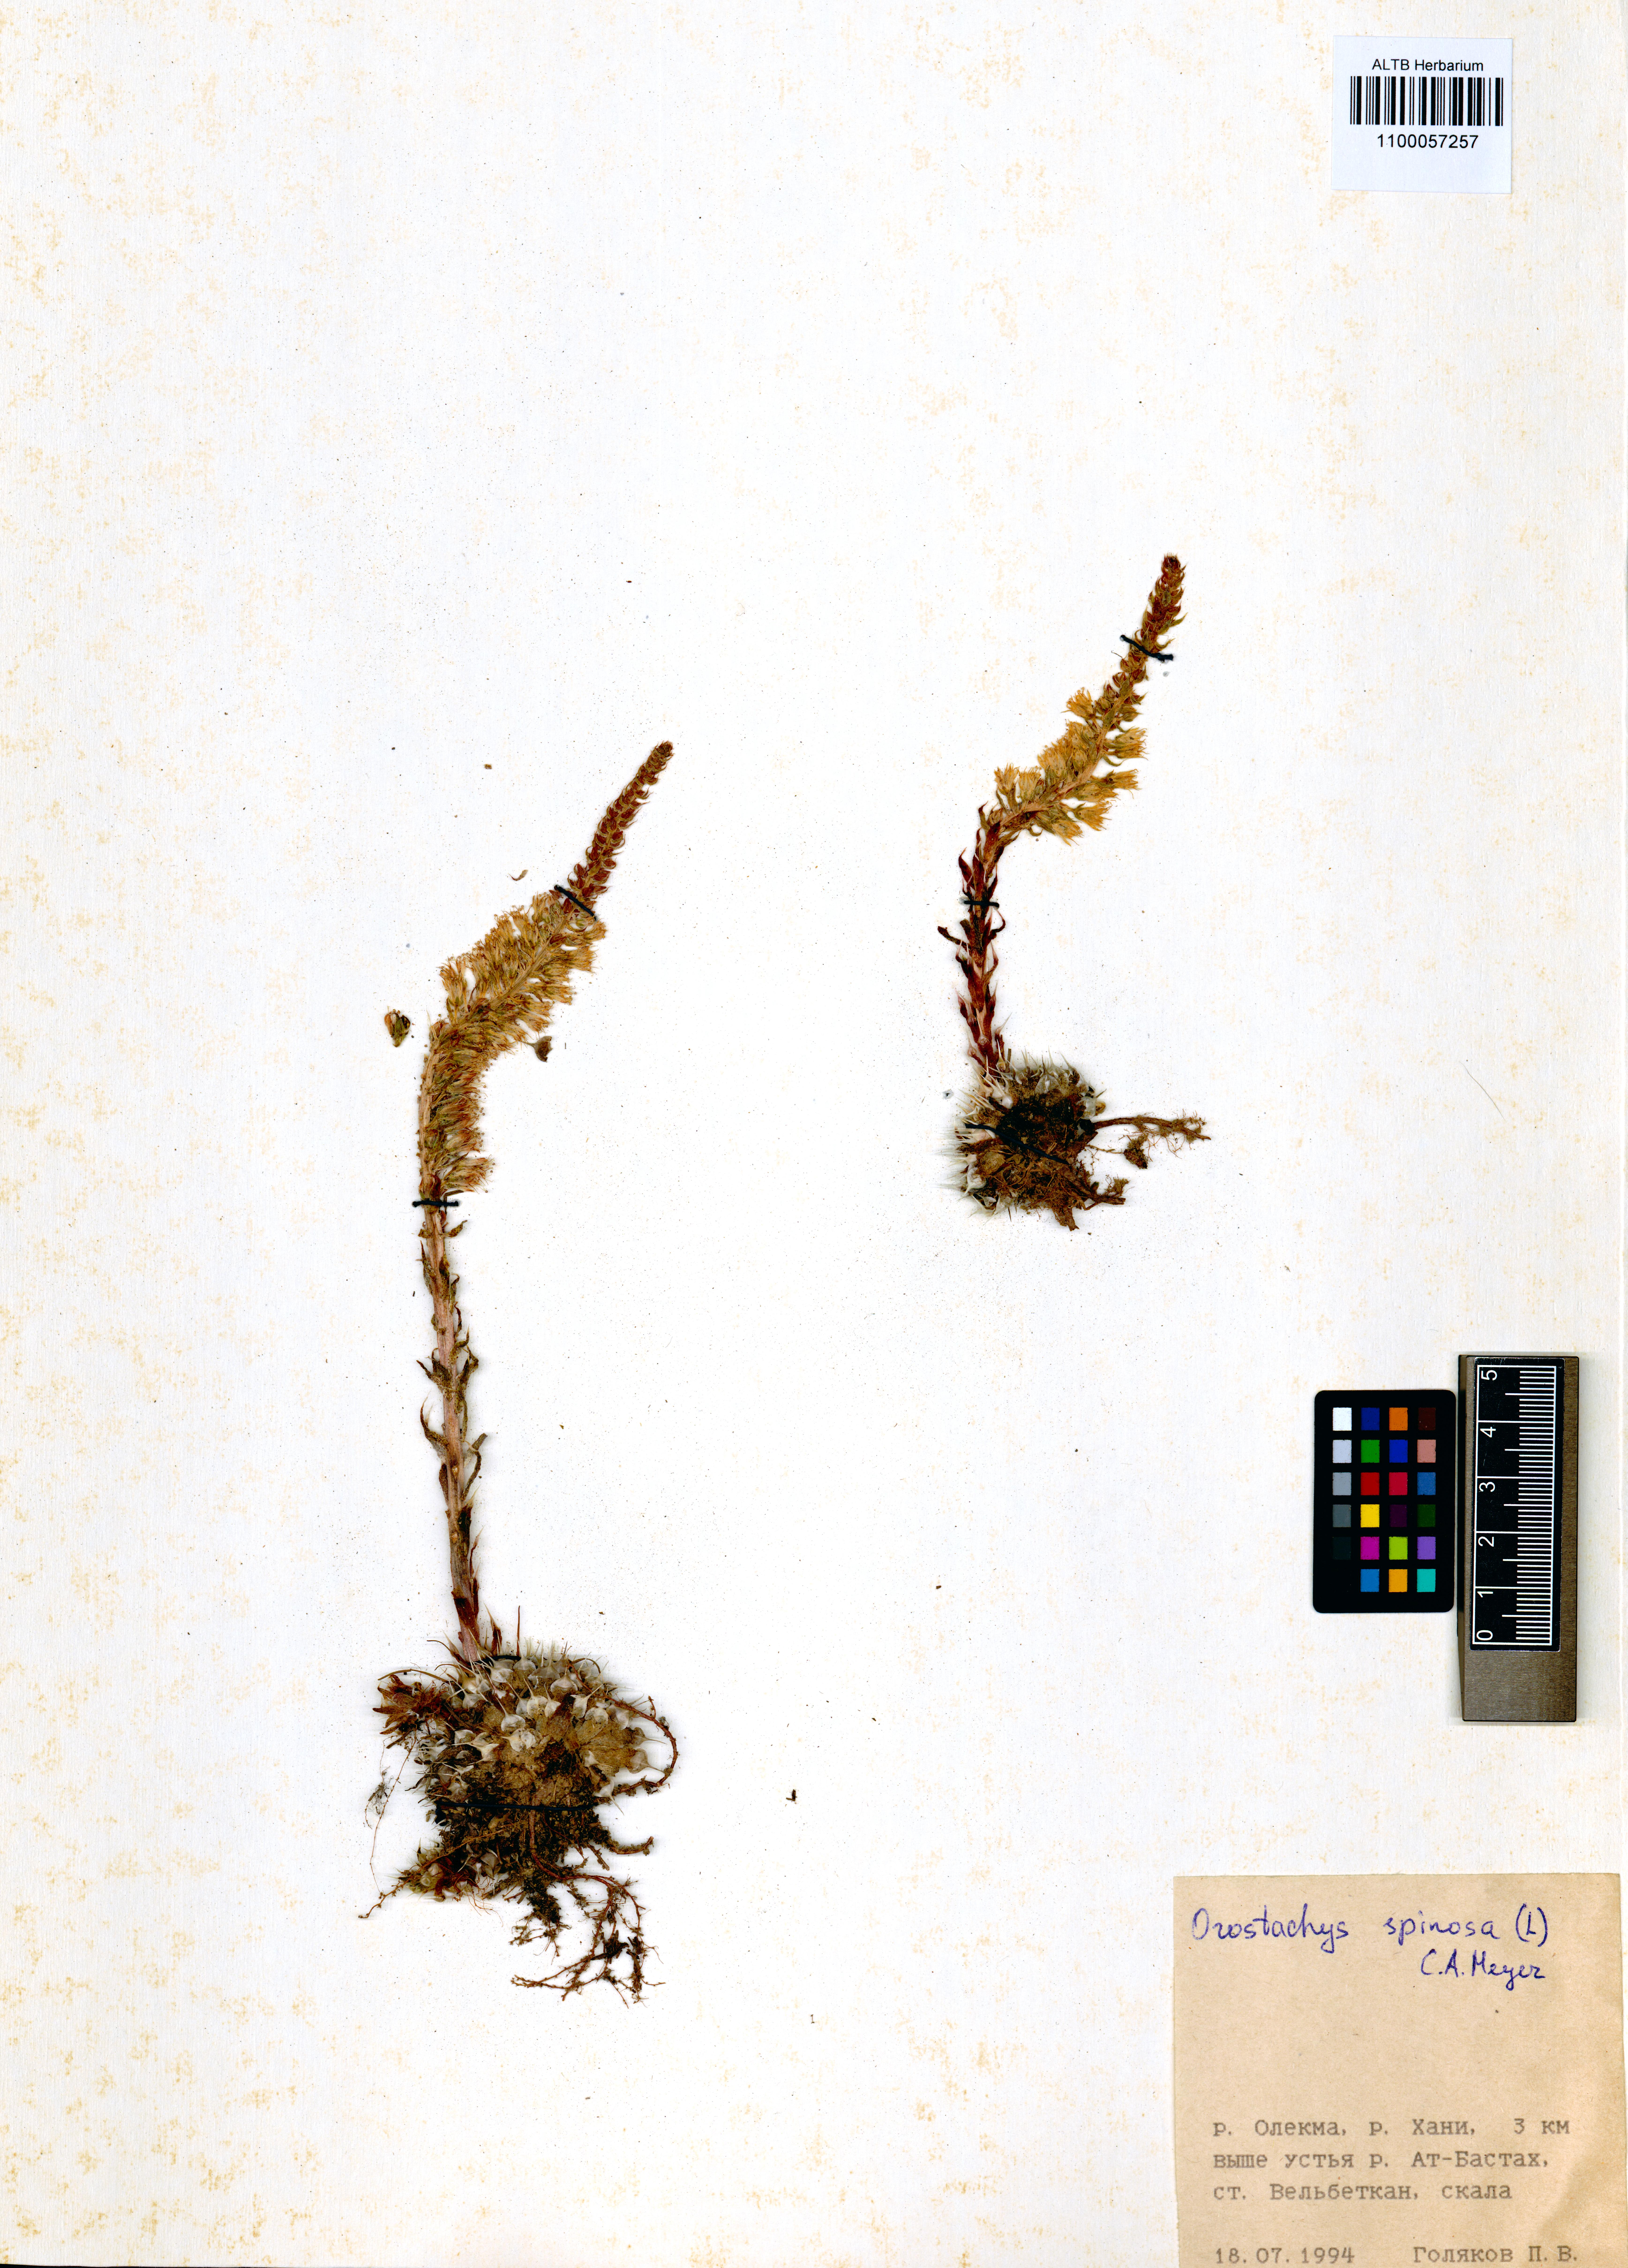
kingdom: Plantae
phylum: Tracheophyta
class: Magnoliopsida
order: Saxifragales
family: Crassulaceae
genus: Orostachys
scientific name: Orostachys spinosa
